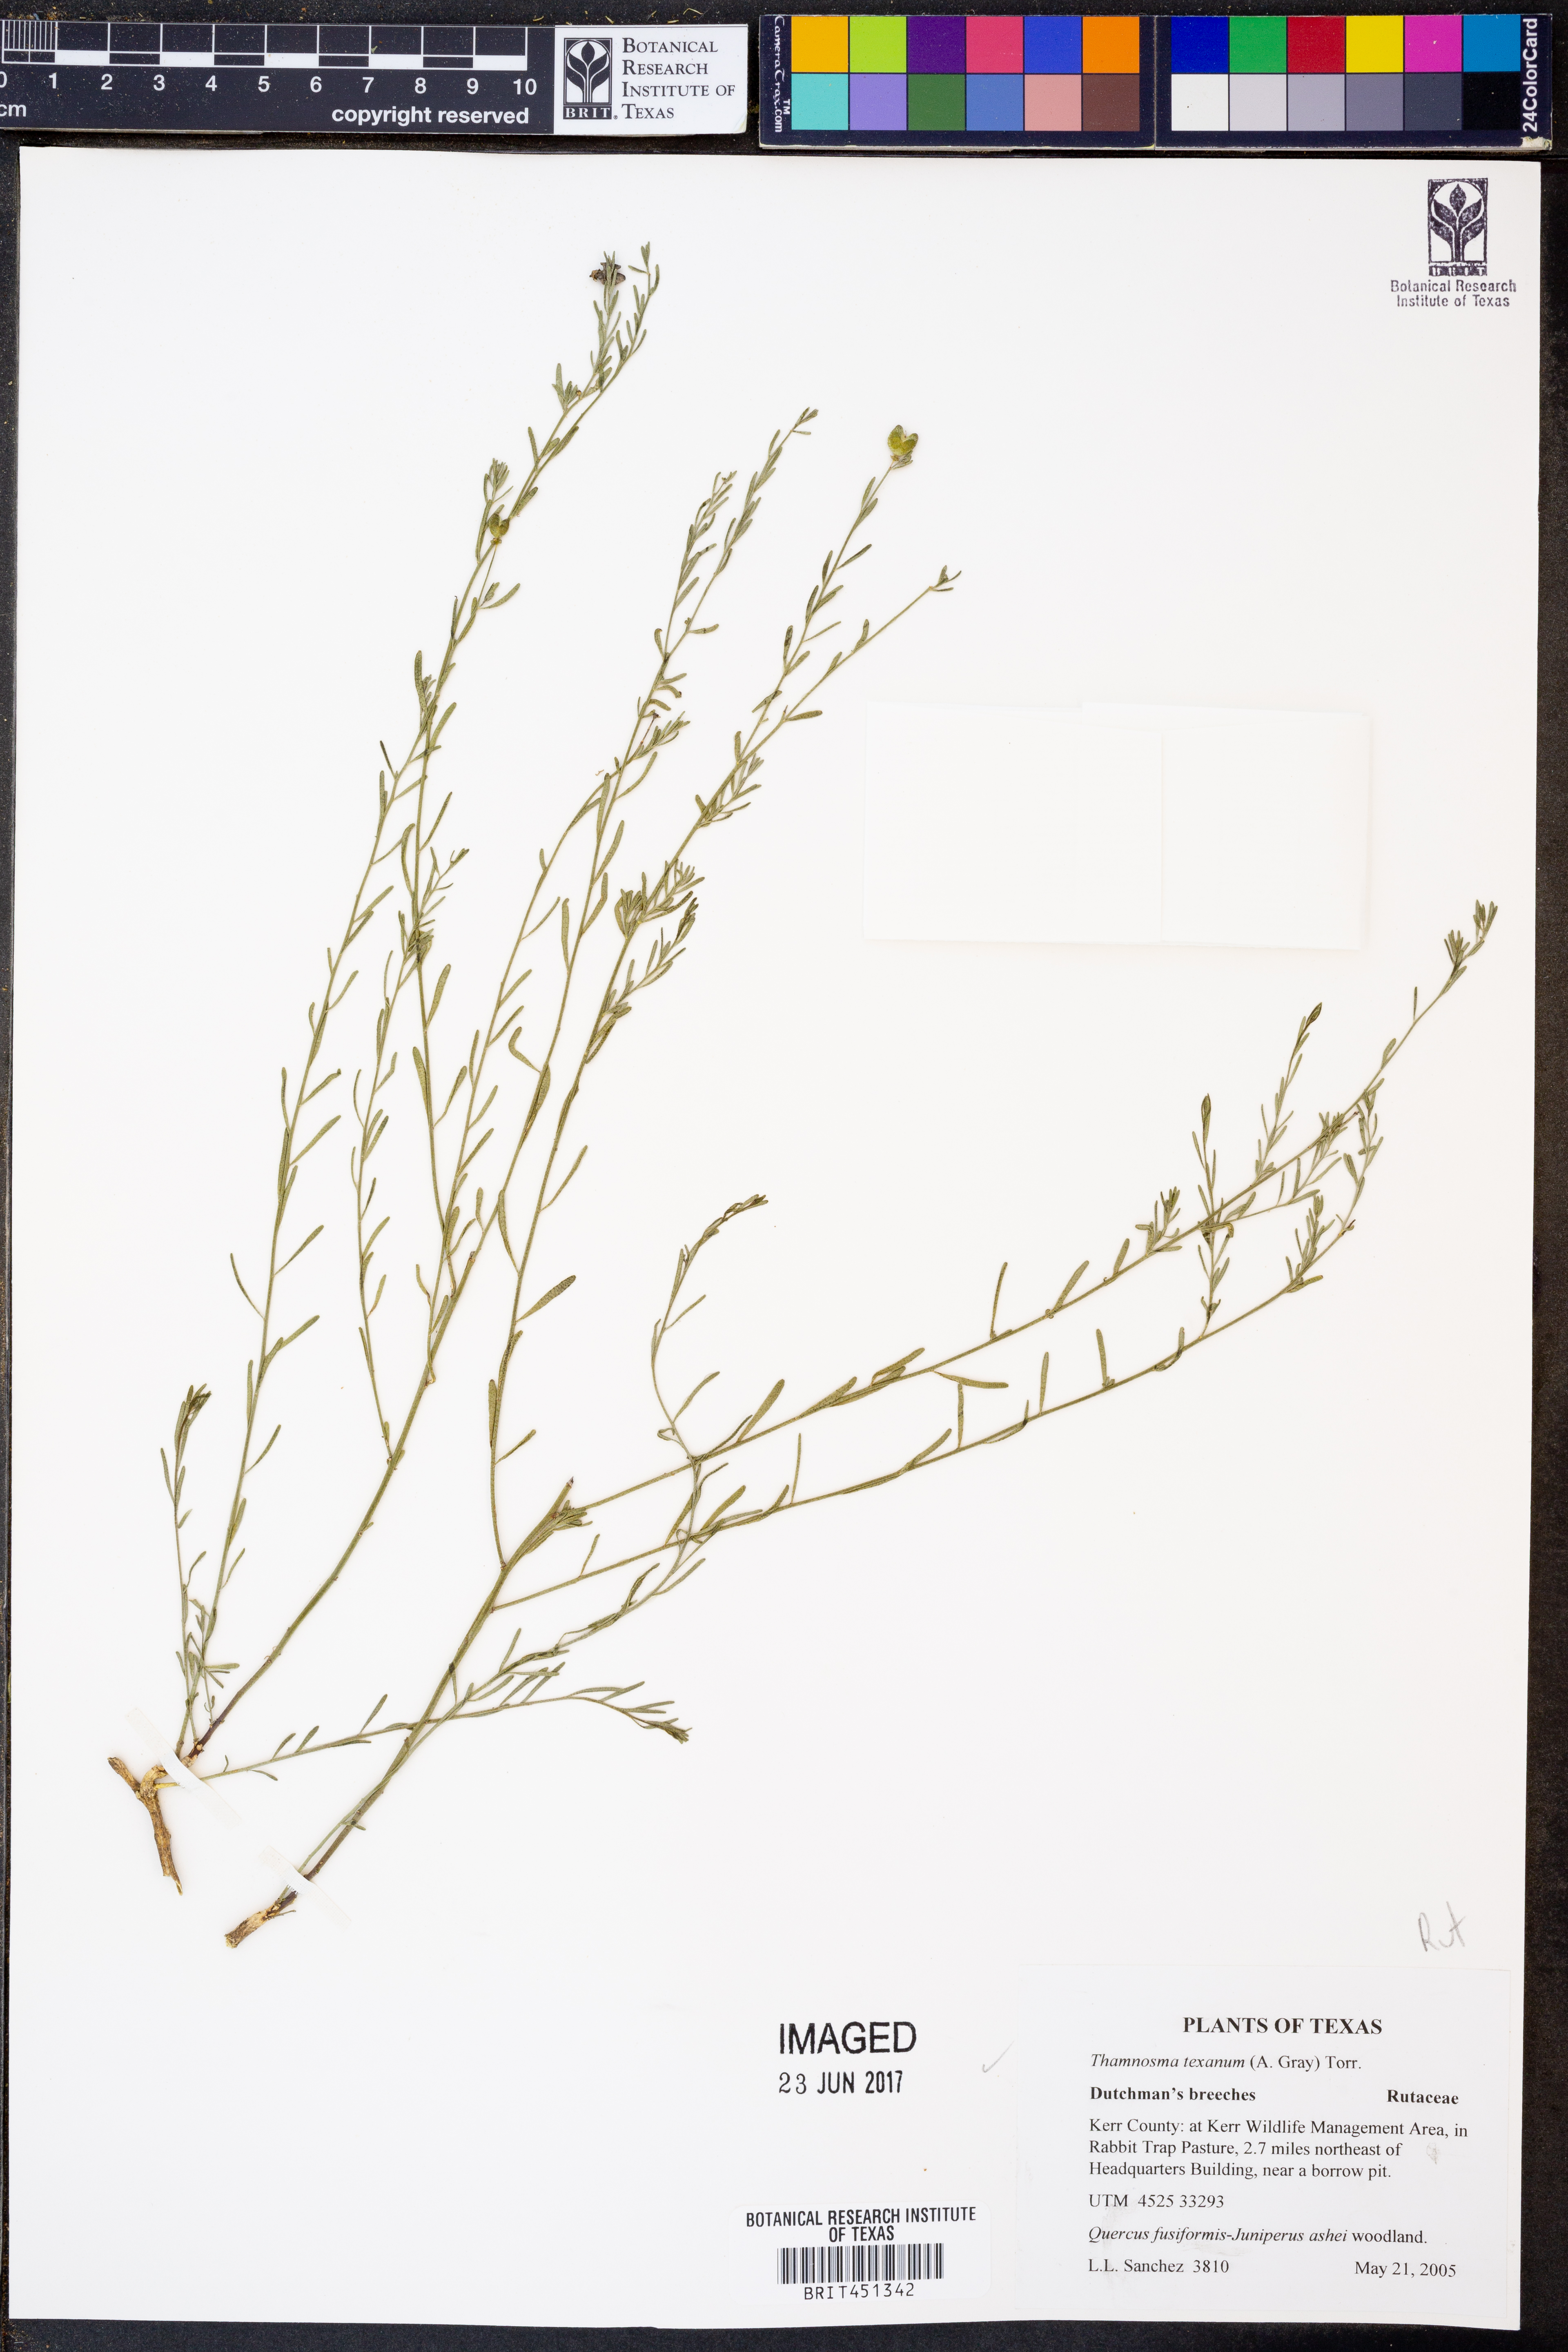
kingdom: Plantae
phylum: Tracheophyta
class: Magnoliopsida
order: Sapindales
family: Rutaceae
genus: Thamnosma
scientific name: Thamnosma texana
